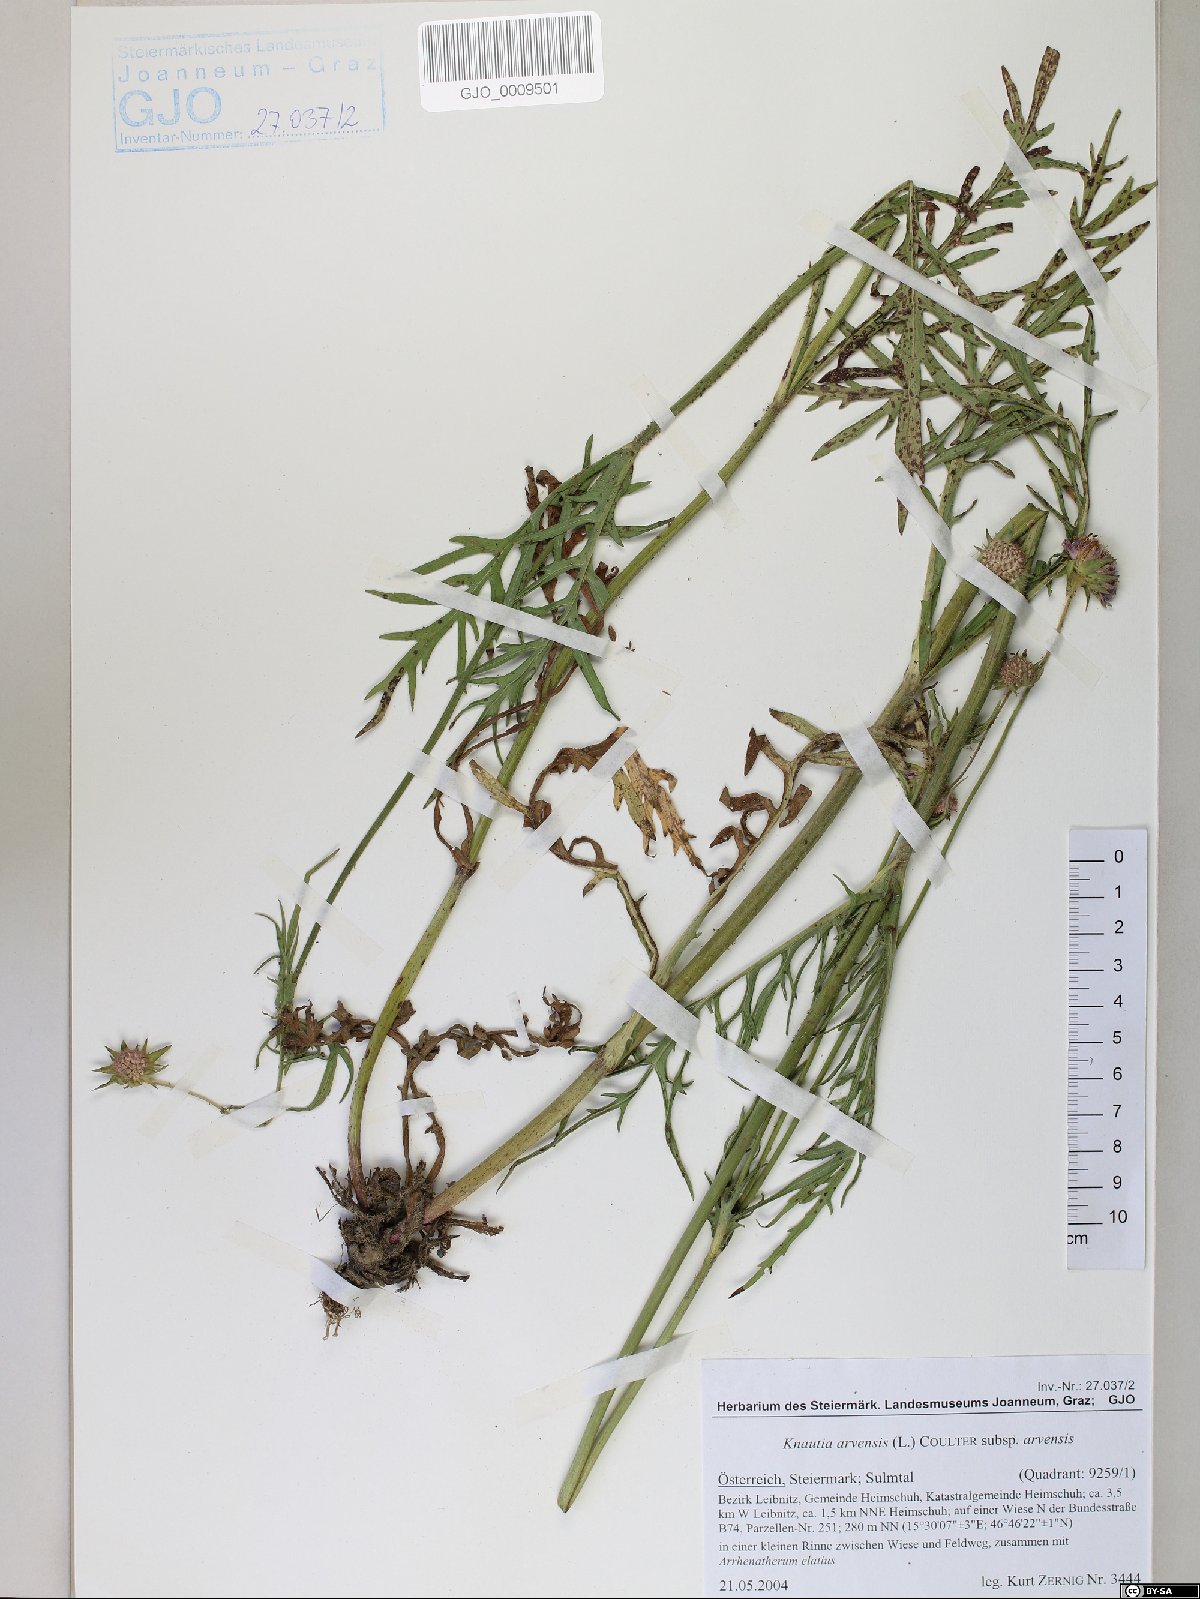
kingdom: Plantae
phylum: Tracheophyta
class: Magnoliopsida
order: Dipsacales
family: Caprifoliaceae
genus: Knautia
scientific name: Knautia arvensis
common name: Field scabiosa
